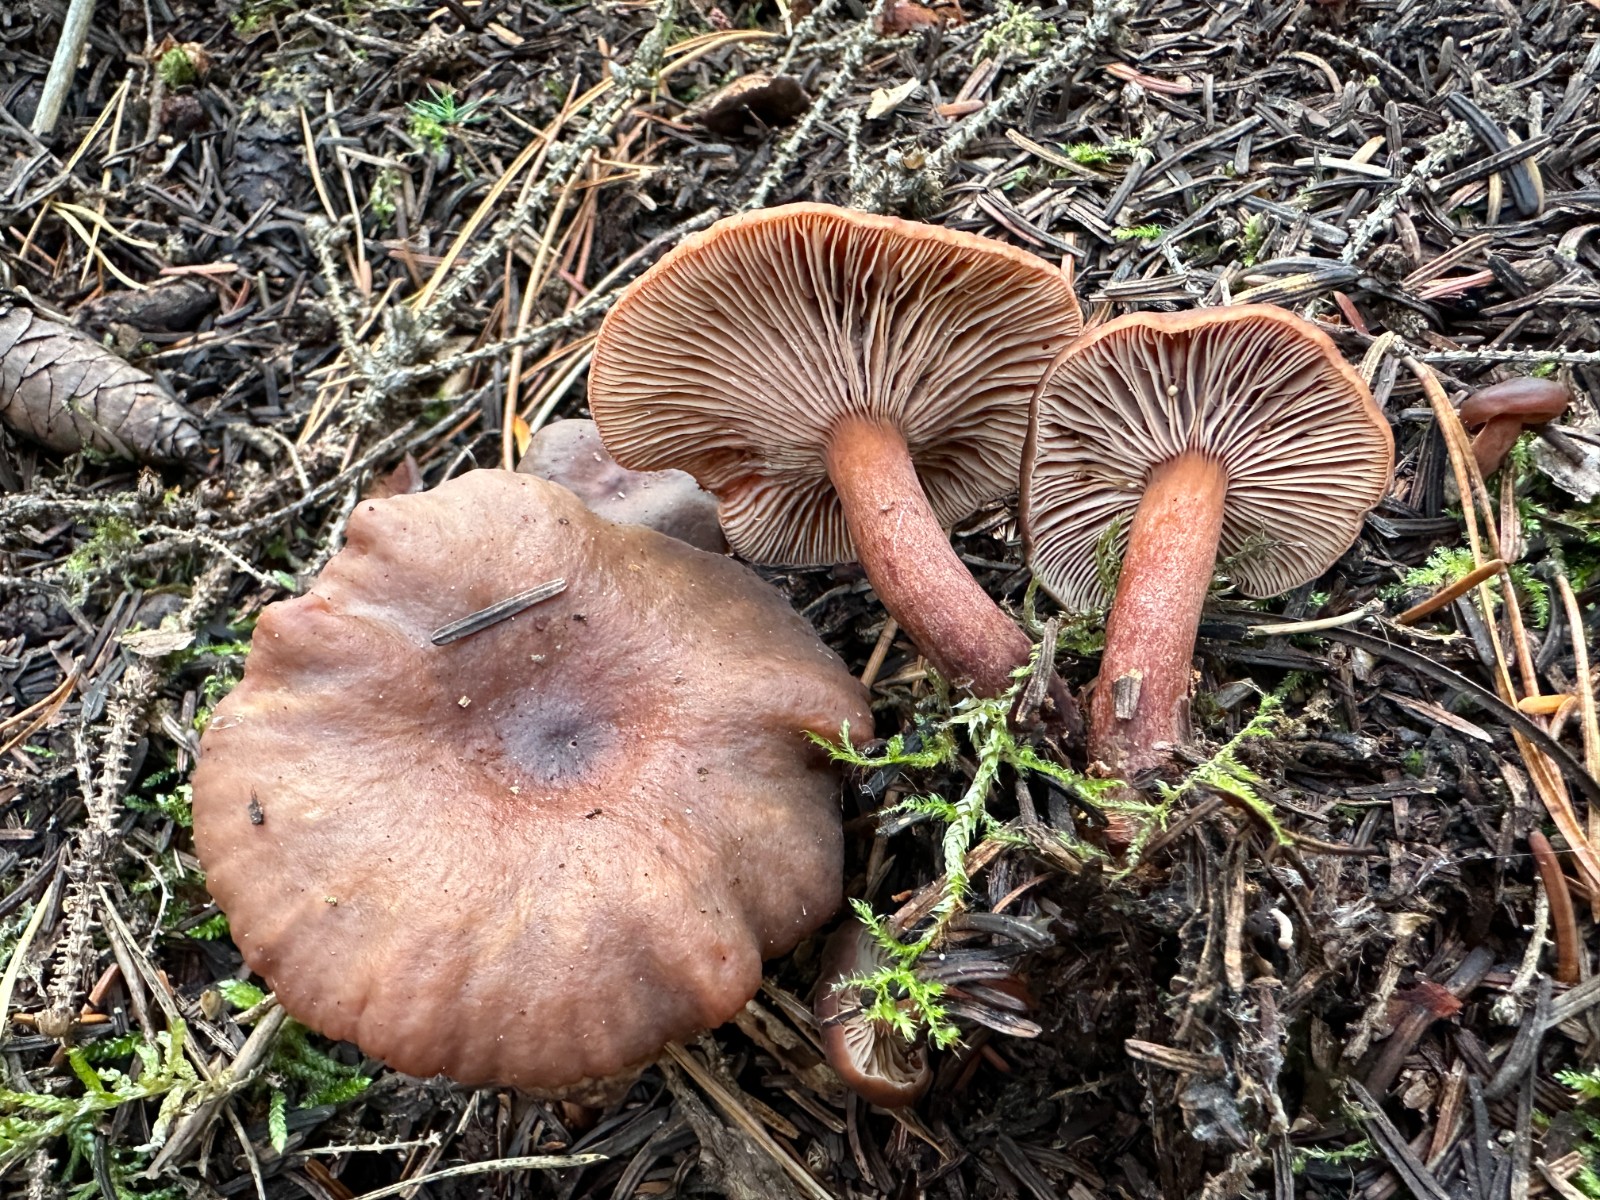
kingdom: Fungi
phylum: Basidiomycota
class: Agaricomycetes
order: Russulales
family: Russulaceae
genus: Lactarius
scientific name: Lactarius hepaticus
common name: leverbrun mælkehat
